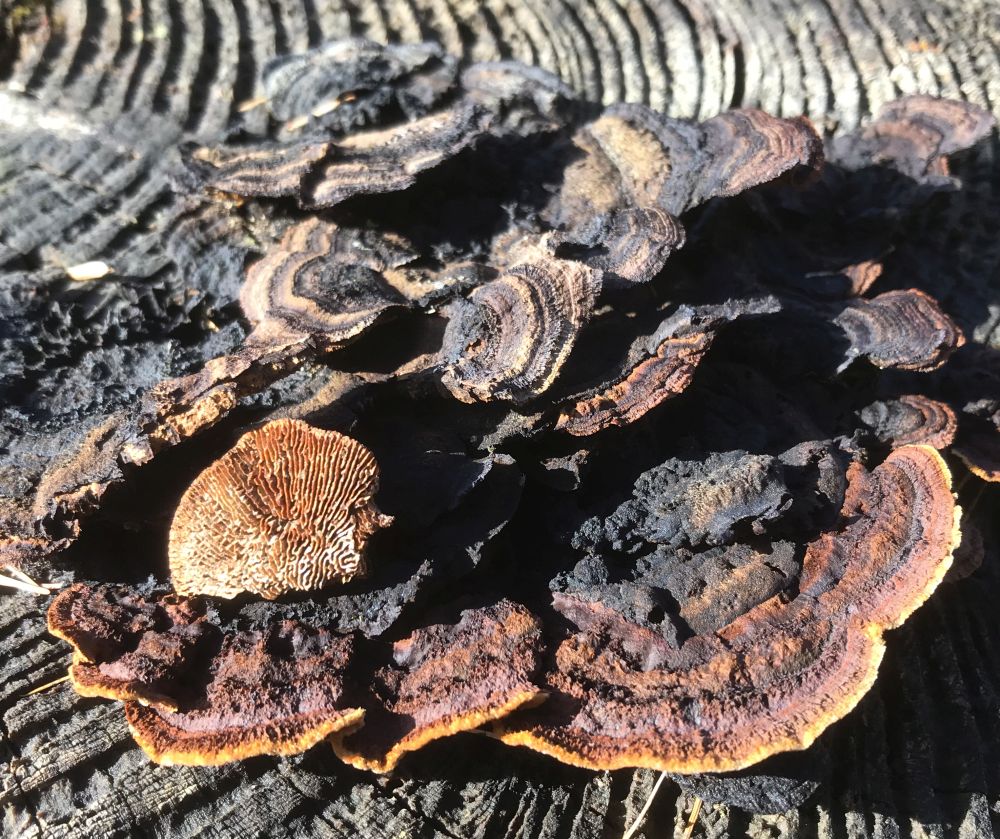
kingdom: Fungi
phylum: Basidiomycota
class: Agaricomycetes
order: Gloeophyllales
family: Gloeophyllaceae
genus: Gloeophyllum
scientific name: Gloeophyllum sepiarium
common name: fyrre-korkhat
